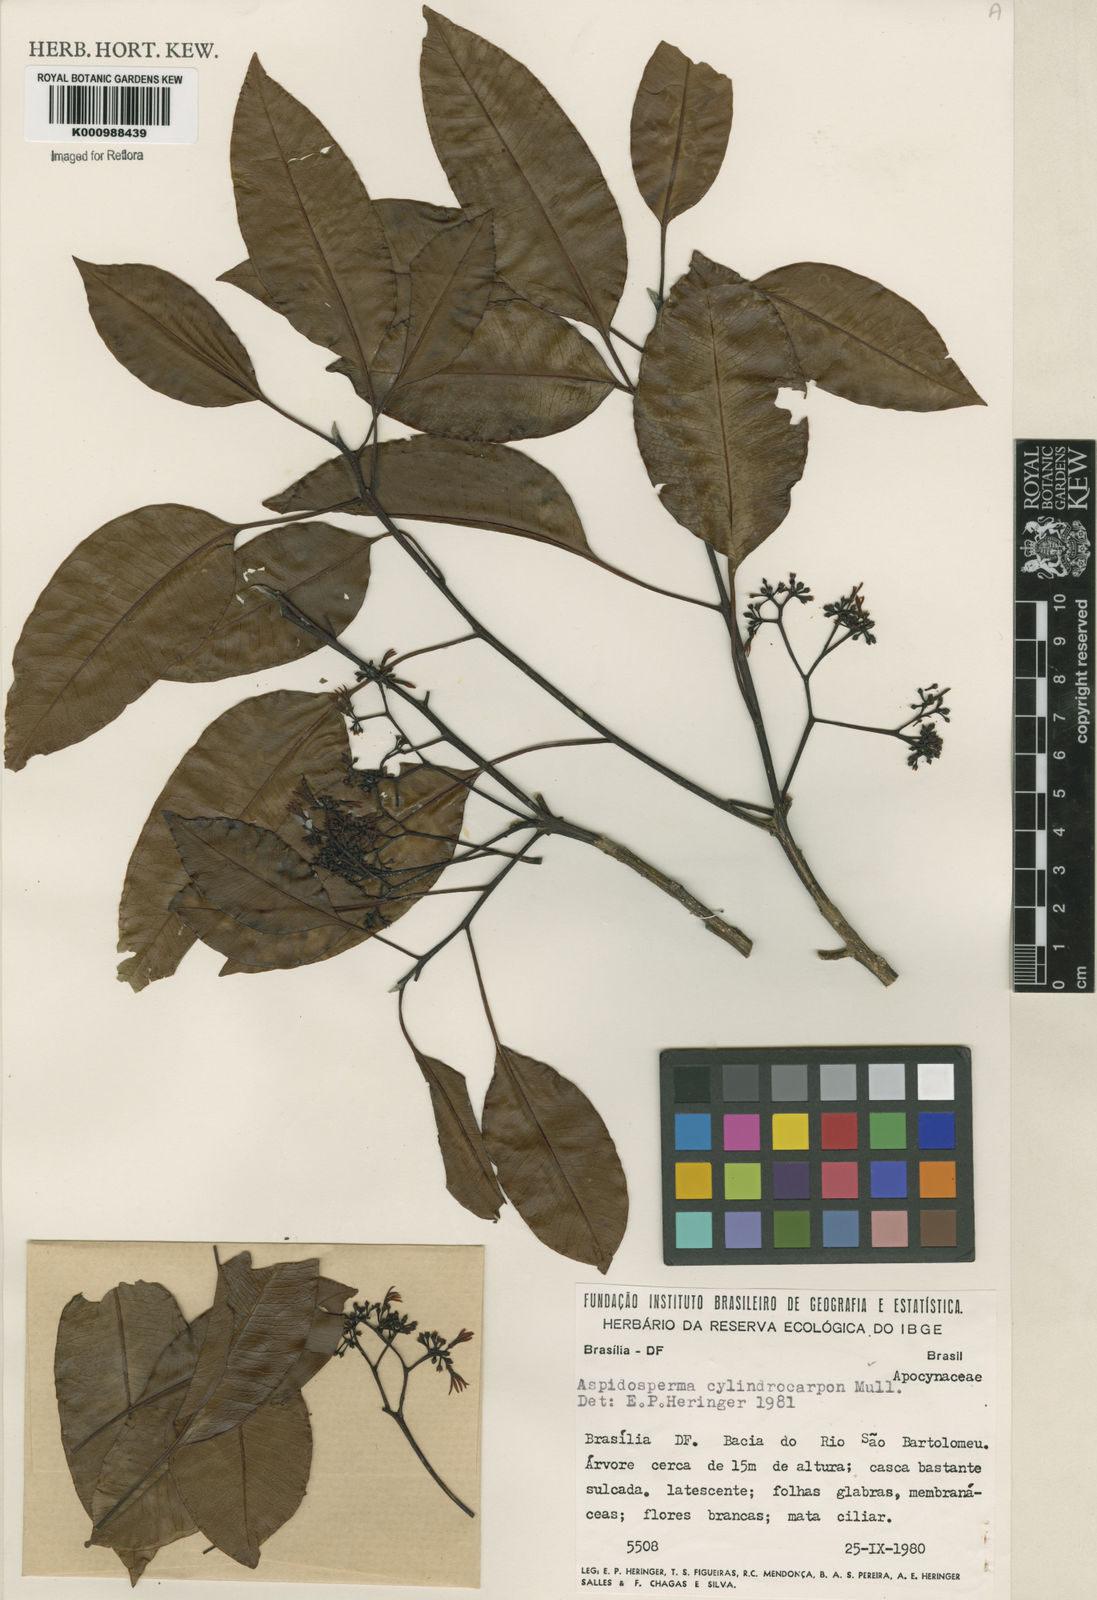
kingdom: Plantae
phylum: Tracheophyta
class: Magnoliopsida
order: Gentianales
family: Apocynaceae
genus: Aspidosperma
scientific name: Aspidosperma
